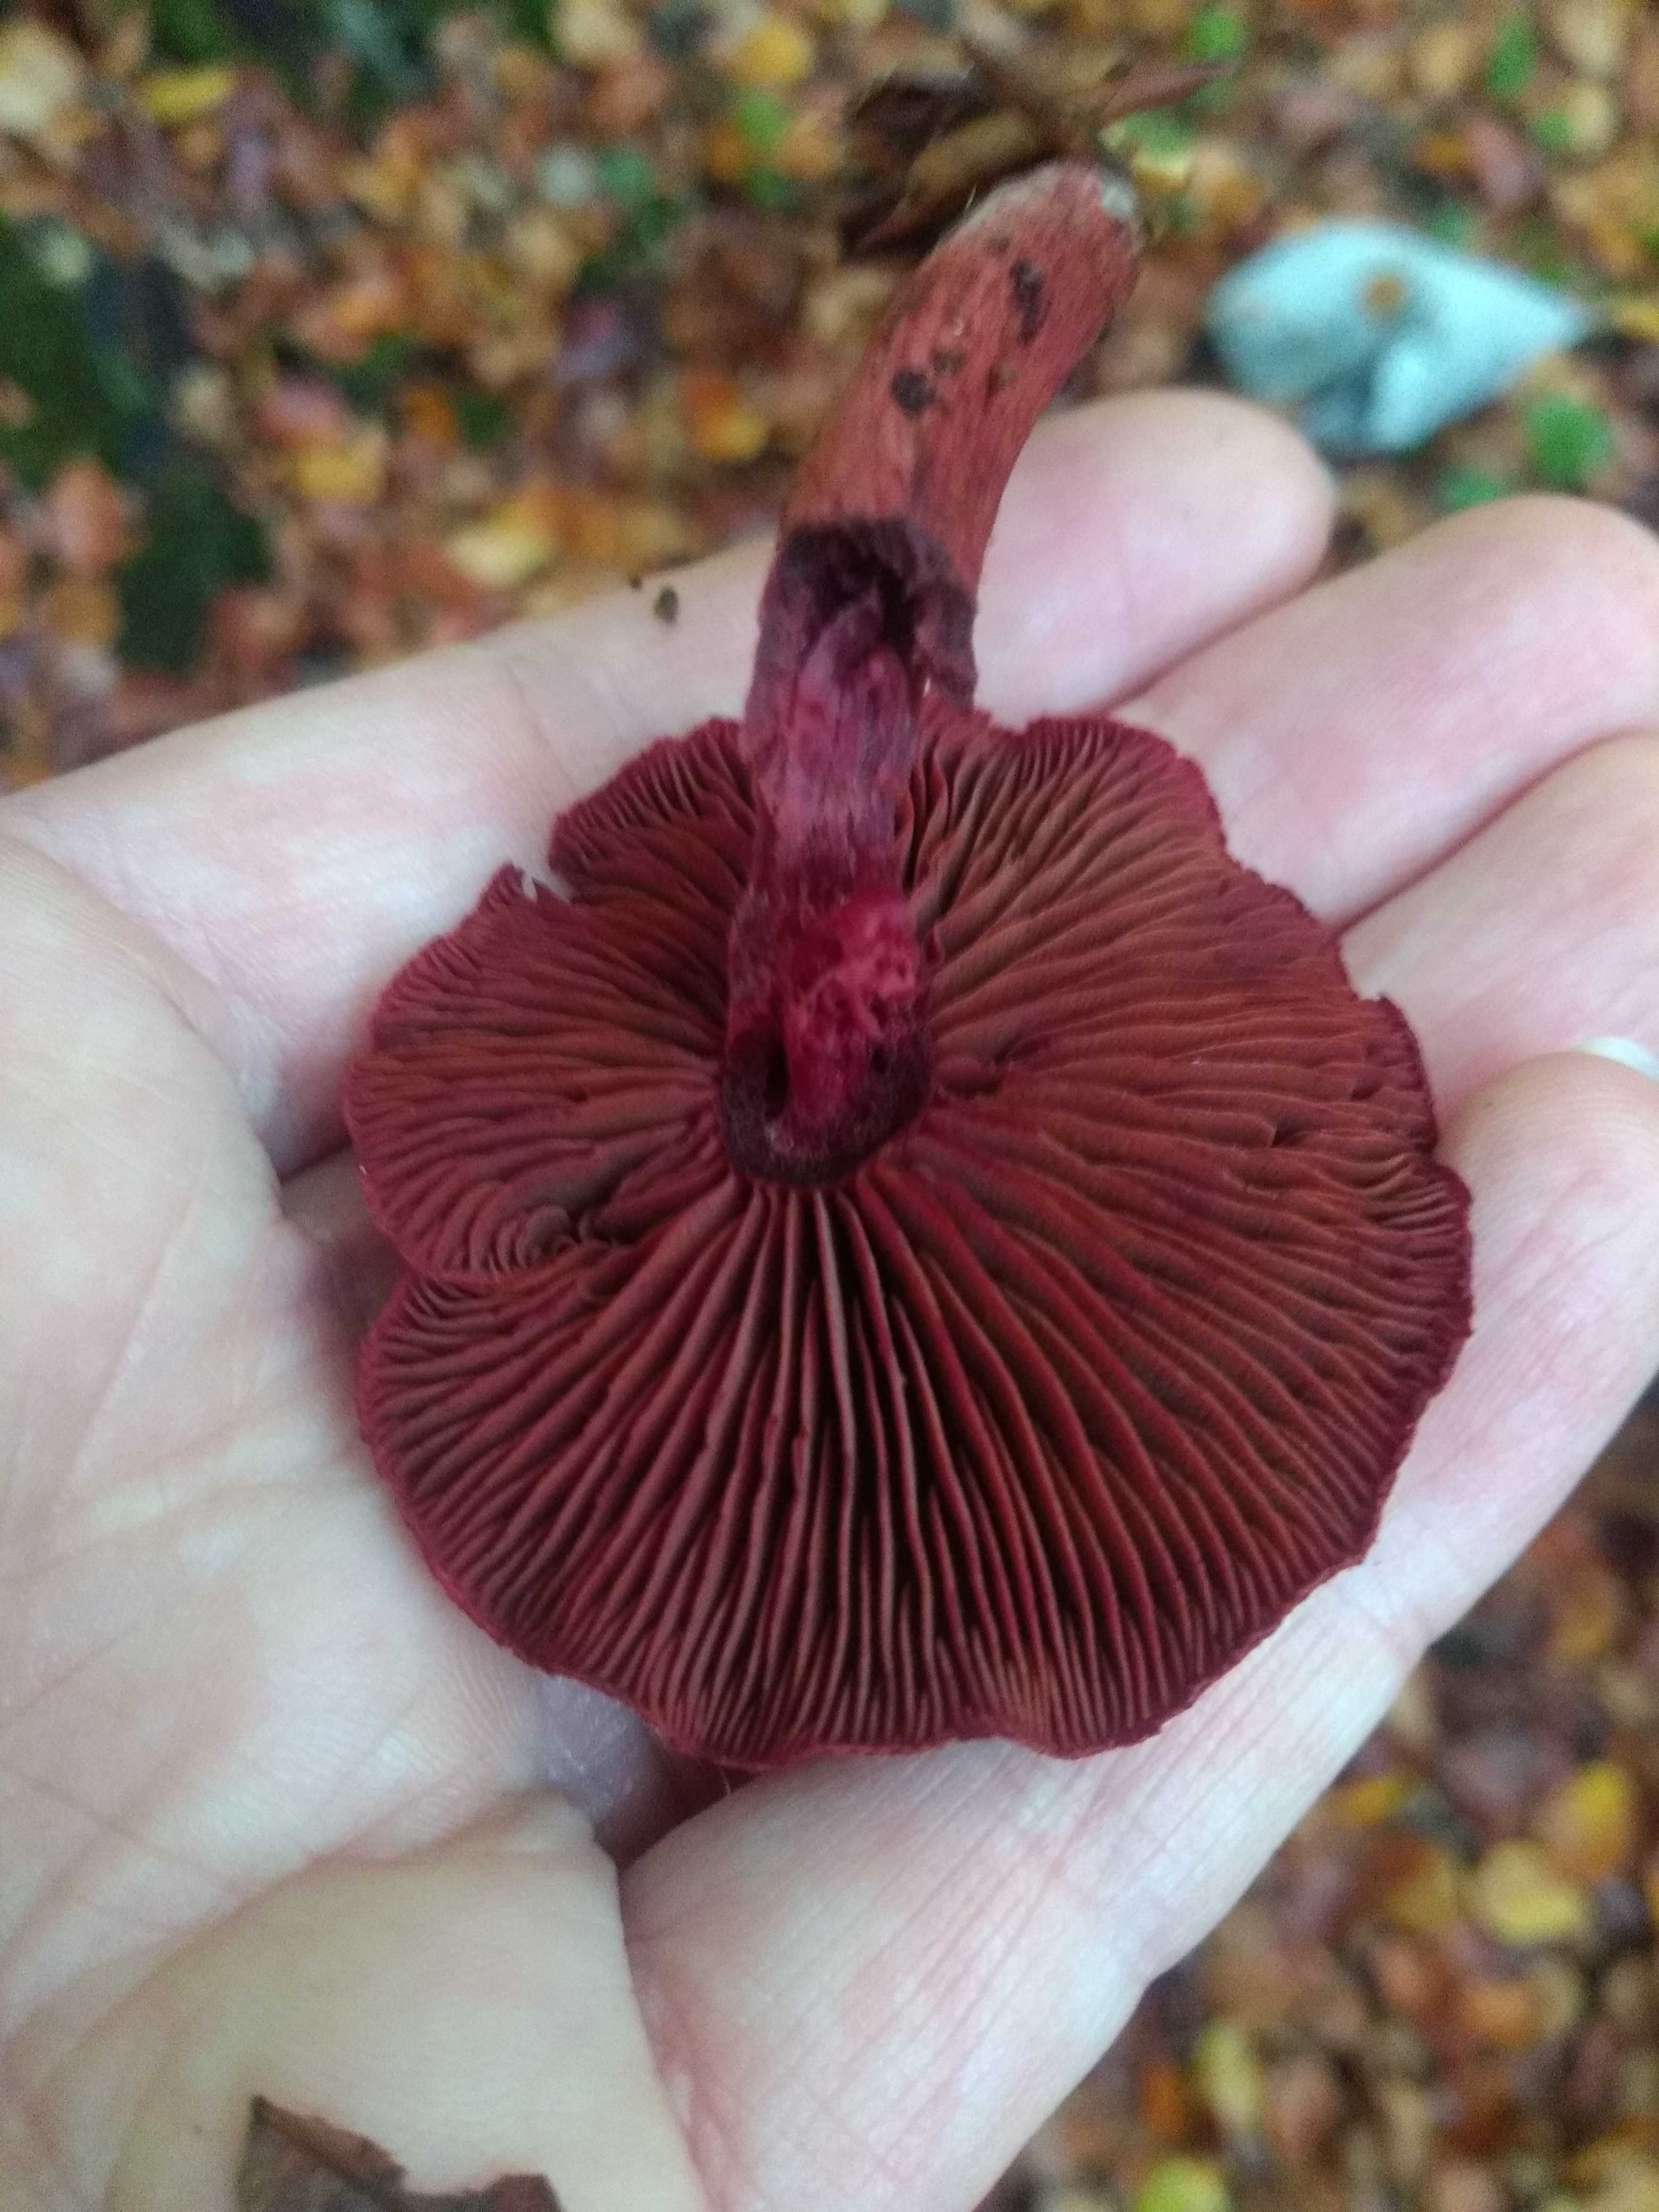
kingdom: Fungi
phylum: Basidiomycota
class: Agaricomycetes
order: Agaricales
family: Cortinariaceae
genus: Cortinarius
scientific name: Cortinarius sanguineus
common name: Bloodred webcap
